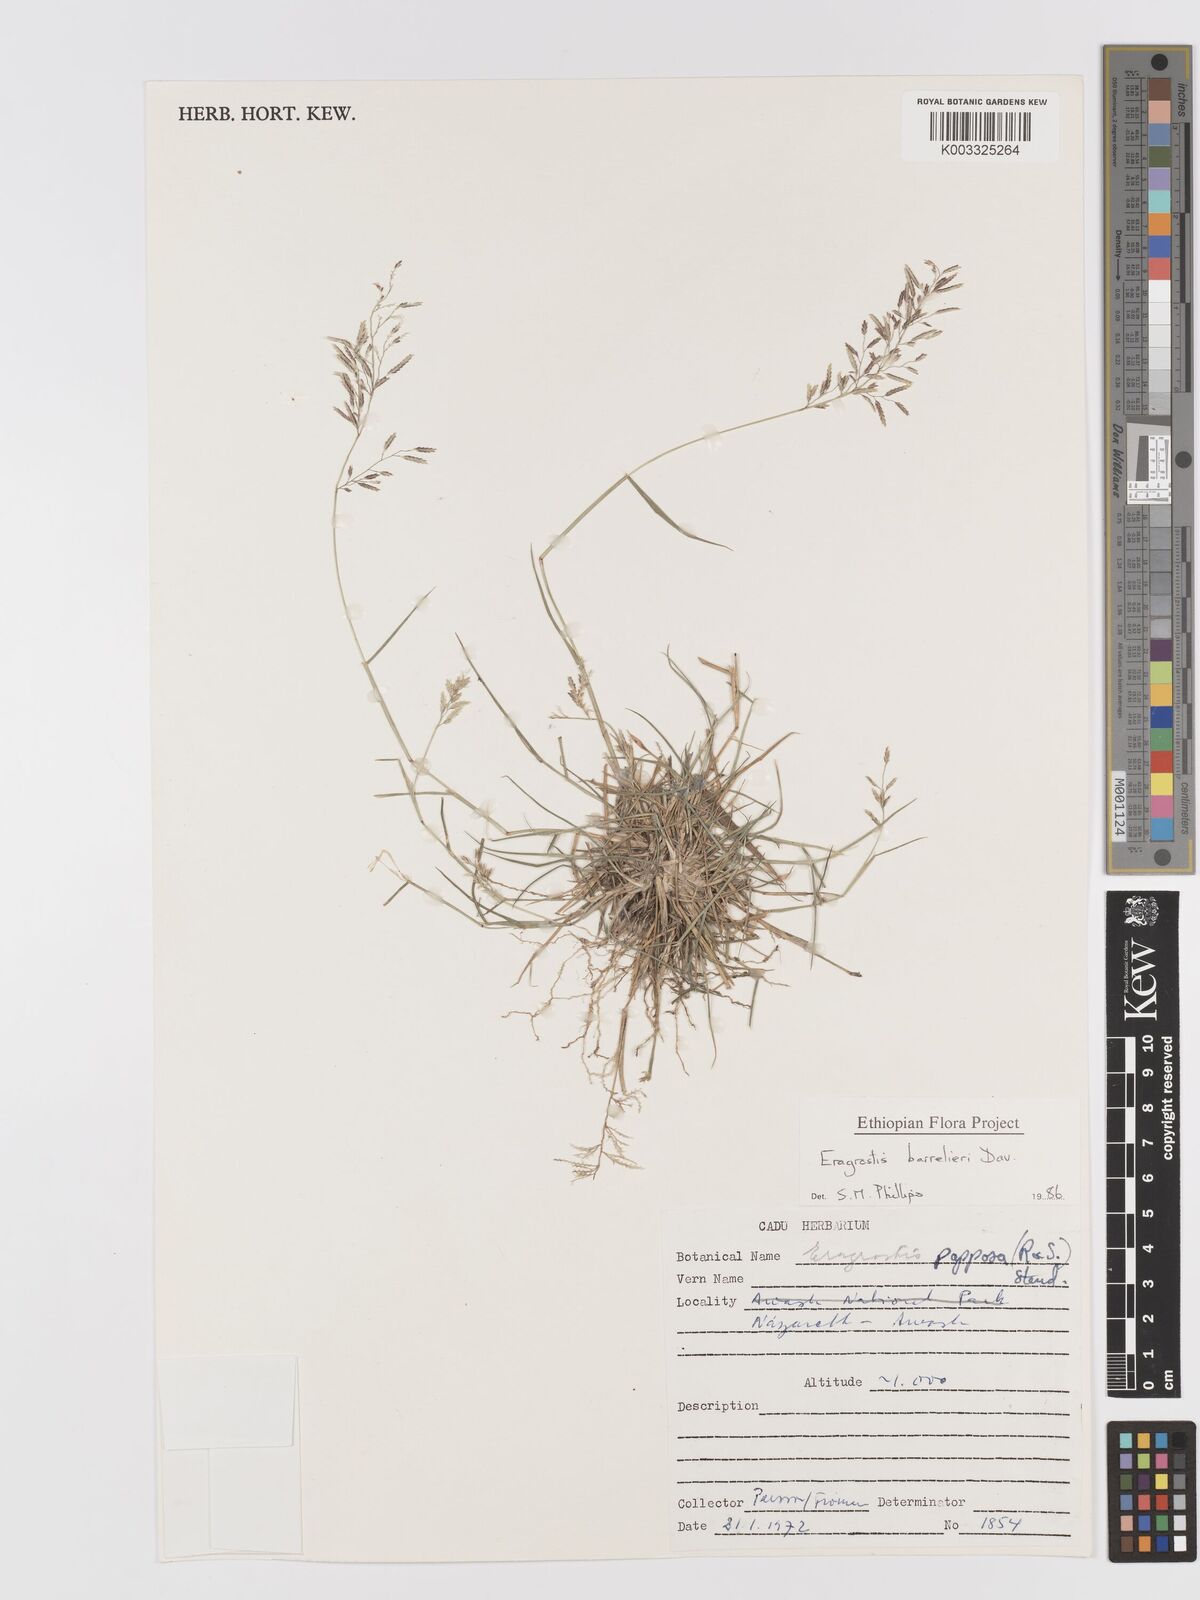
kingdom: Plantae
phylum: Tracheophyta
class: Liliopsida
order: Poales
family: Poaceae
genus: Eragrostis
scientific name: Eragrostis barrelieri
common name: Mediterranean lovegrass
